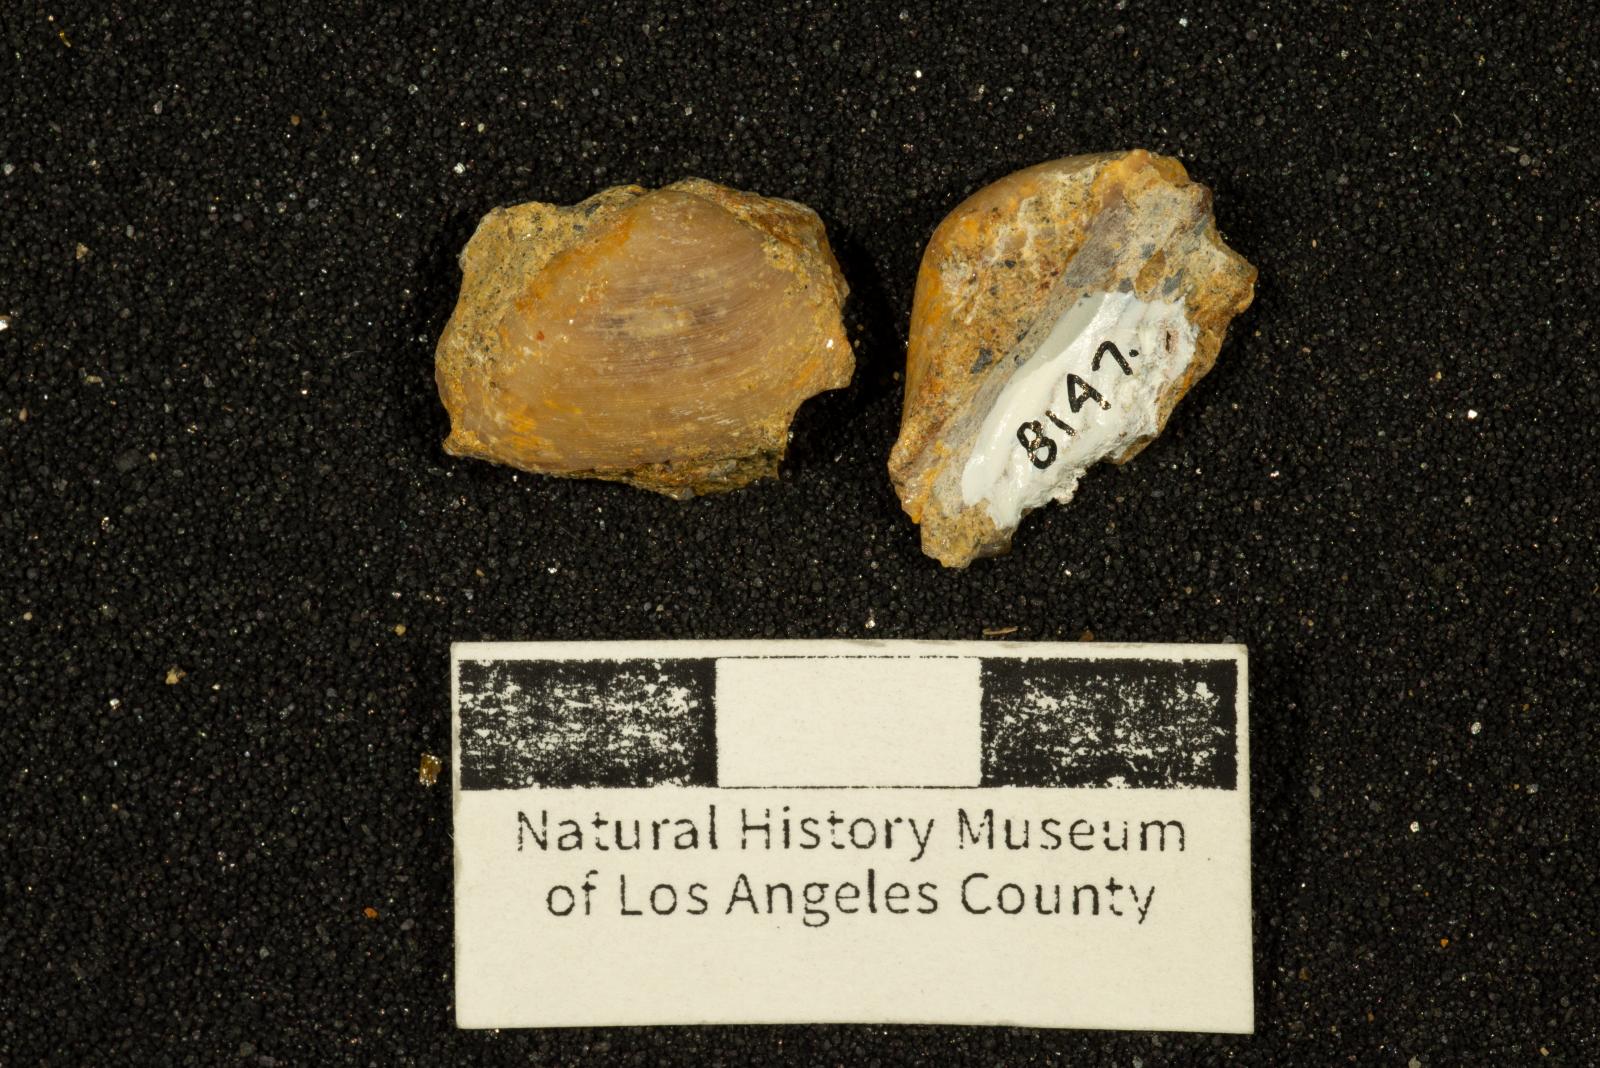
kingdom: Animalia
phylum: Mollusca
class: Bivalvia
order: Nuculanida
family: Nuculanidae
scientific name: Nuculanidae
